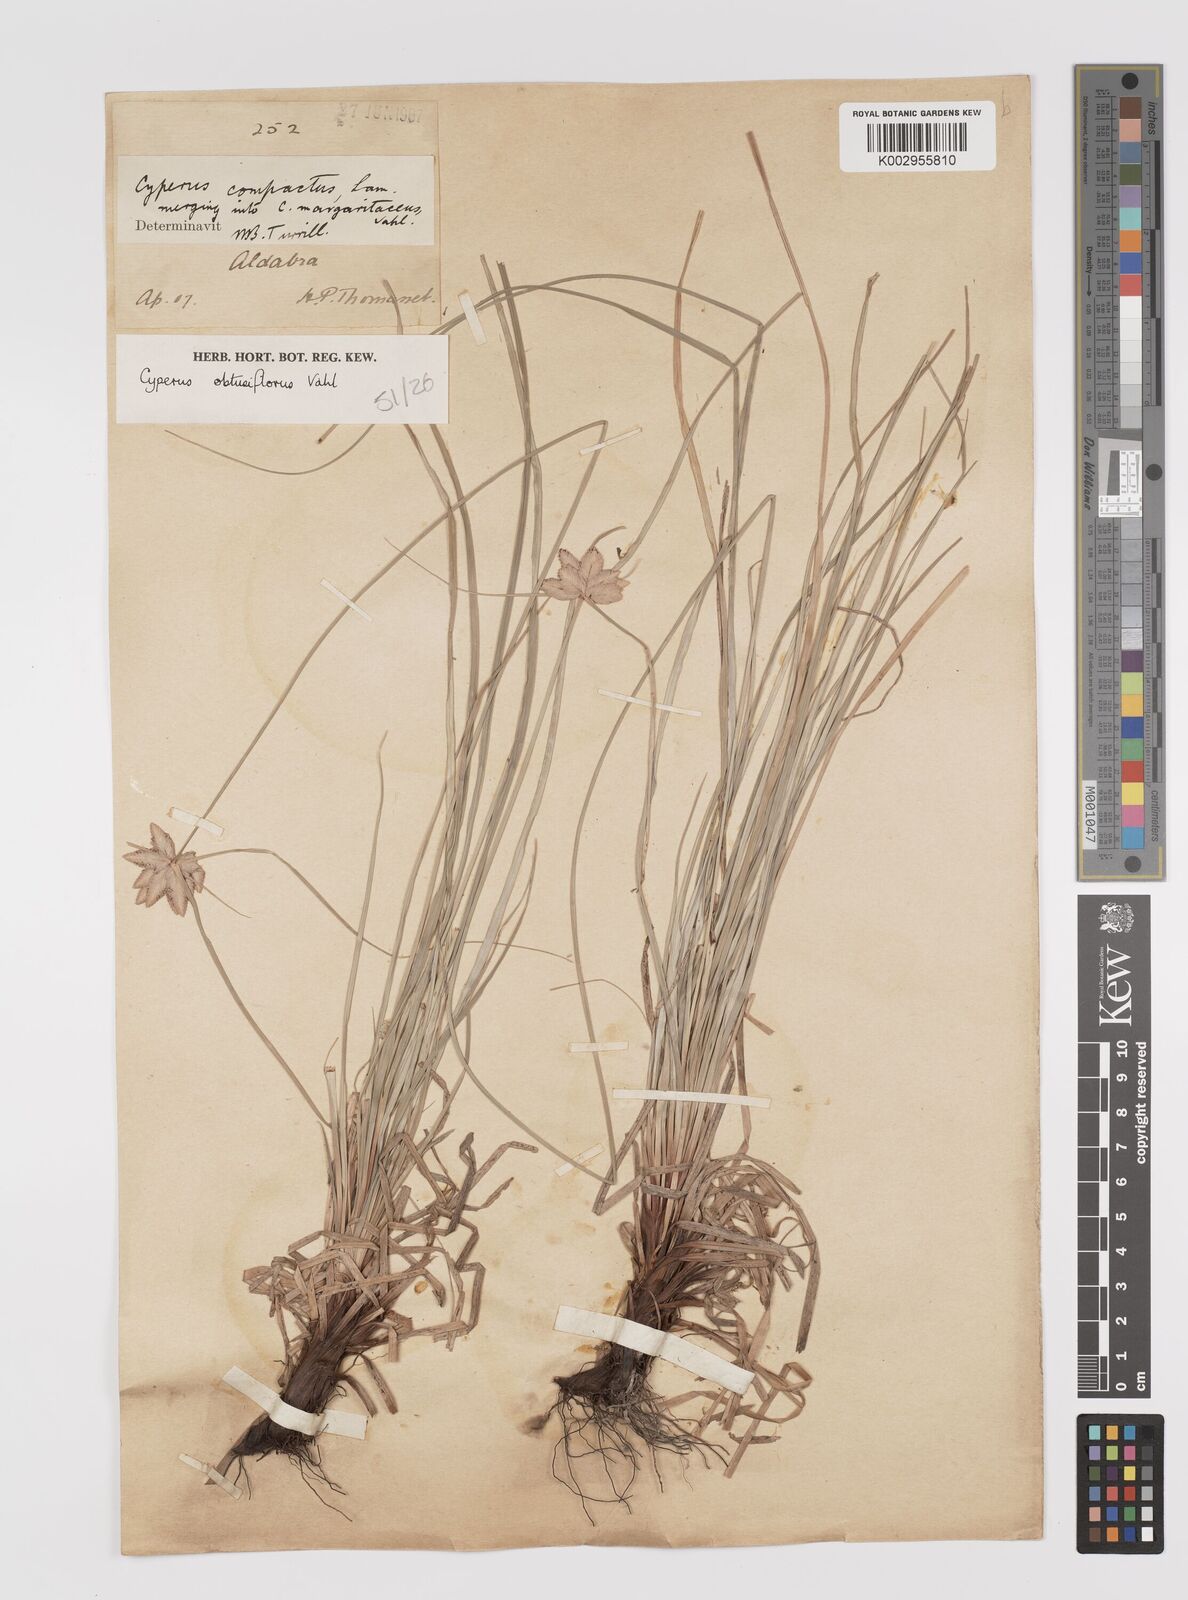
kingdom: Plantae
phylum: Tracheophyta
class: Liliopsida
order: Poales
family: Cyperaceae
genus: Cyperus
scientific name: Cyperus niveus
